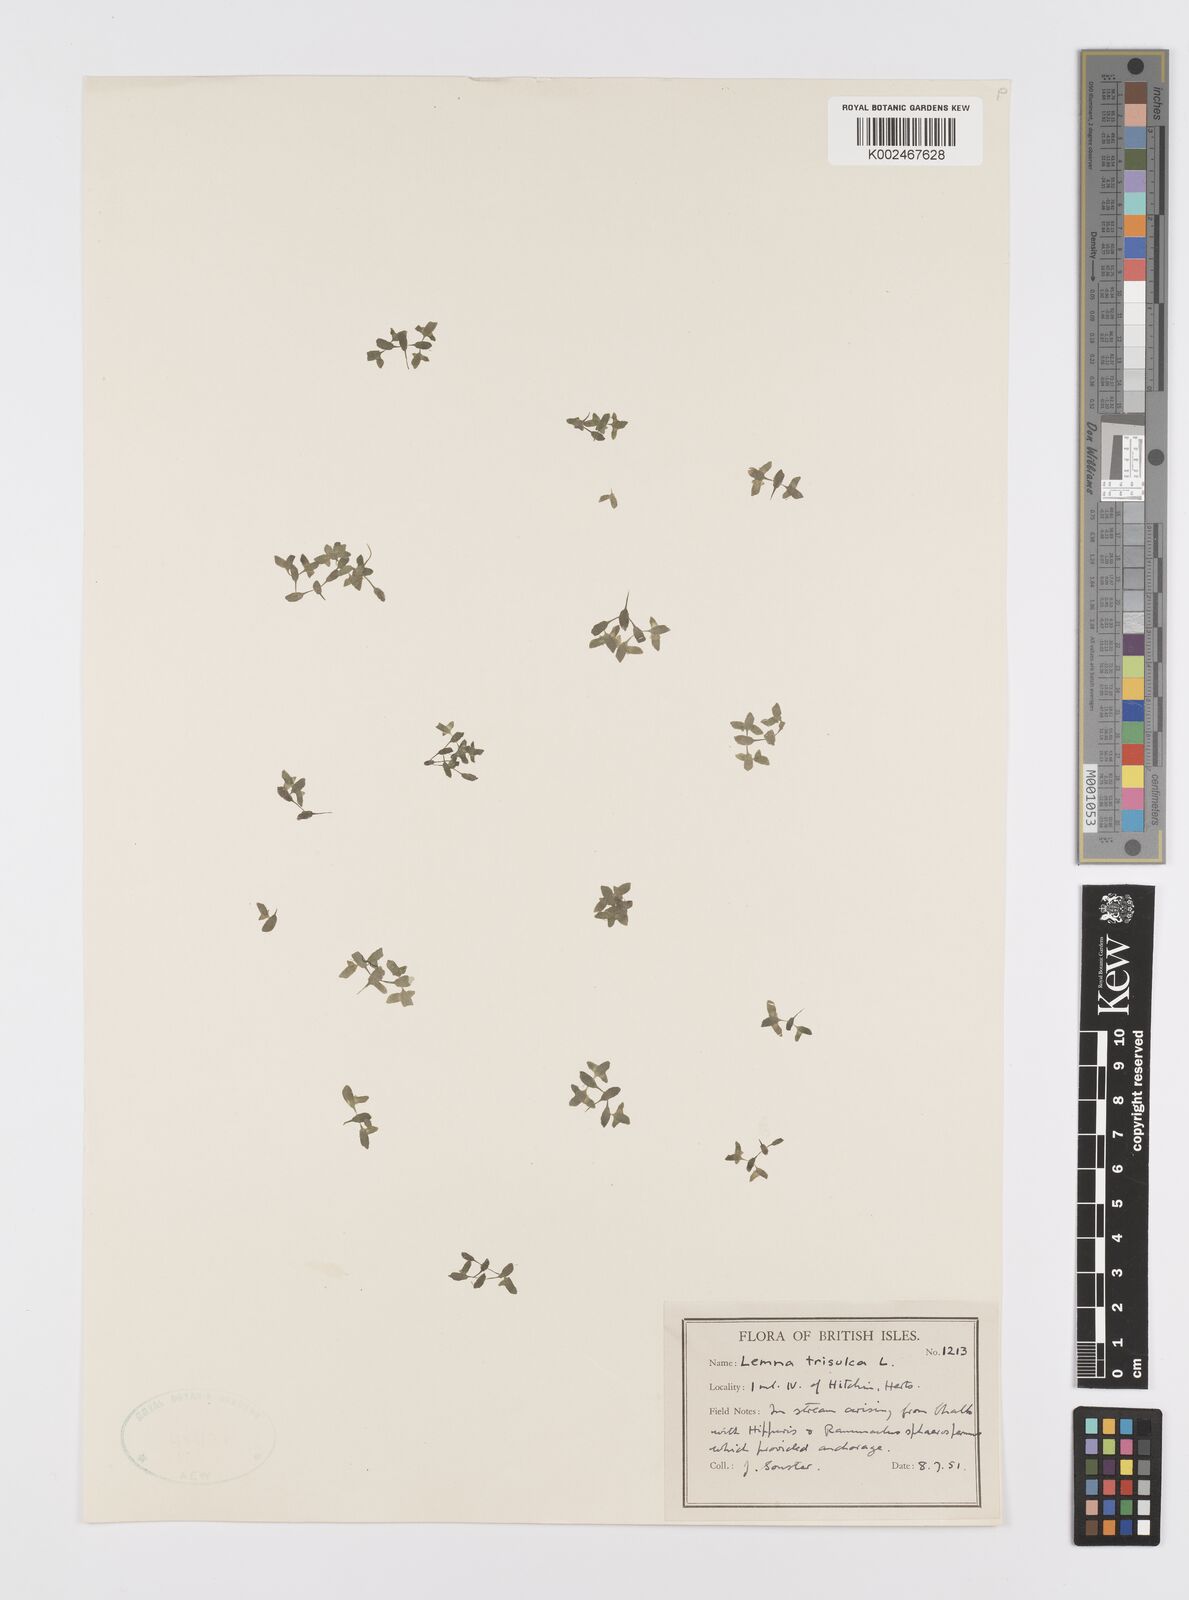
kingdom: Plantae
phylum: Tracheophyta
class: Liliopsida
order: Alismatales
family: Araceae
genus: Lemna
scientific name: Lemna trisulca
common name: Ivy-leaved duckweed
